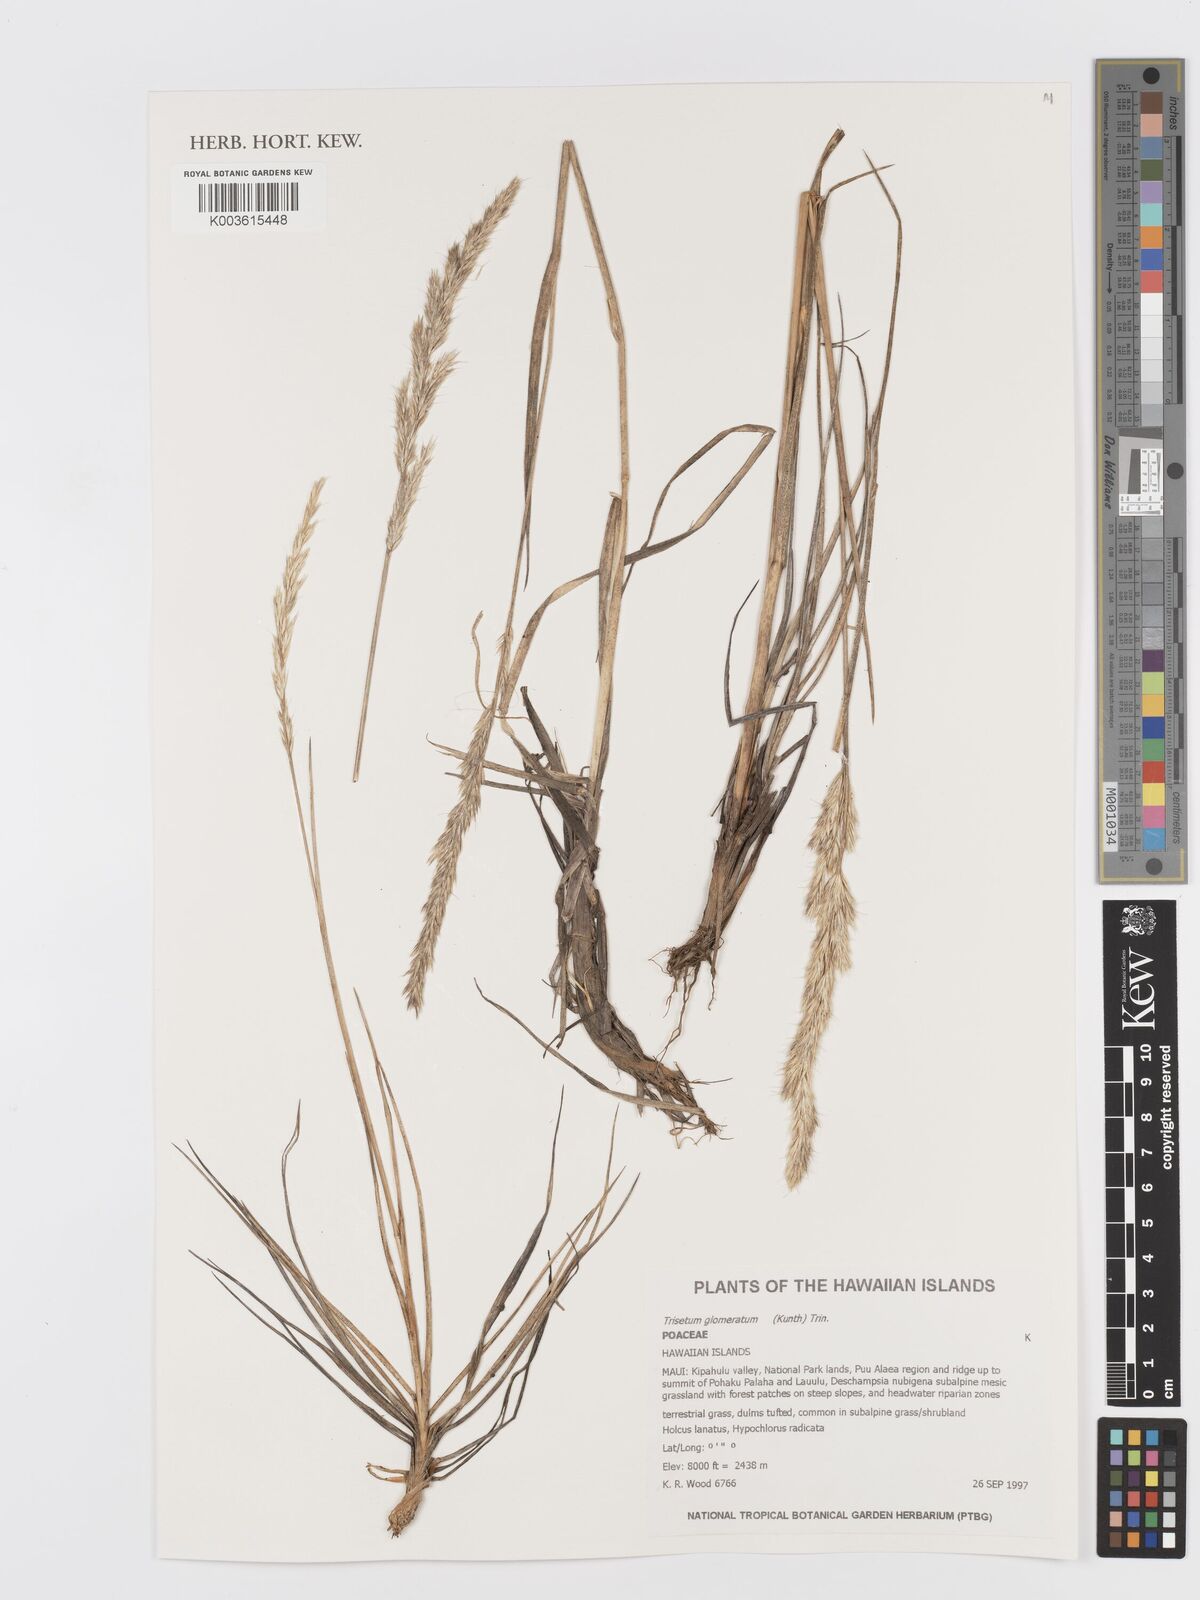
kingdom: Plantae
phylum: Tracheophyta
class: Liliopsida
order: Poales
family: Poaceae
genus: Trisetum
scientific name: Trisetum glomeratum
